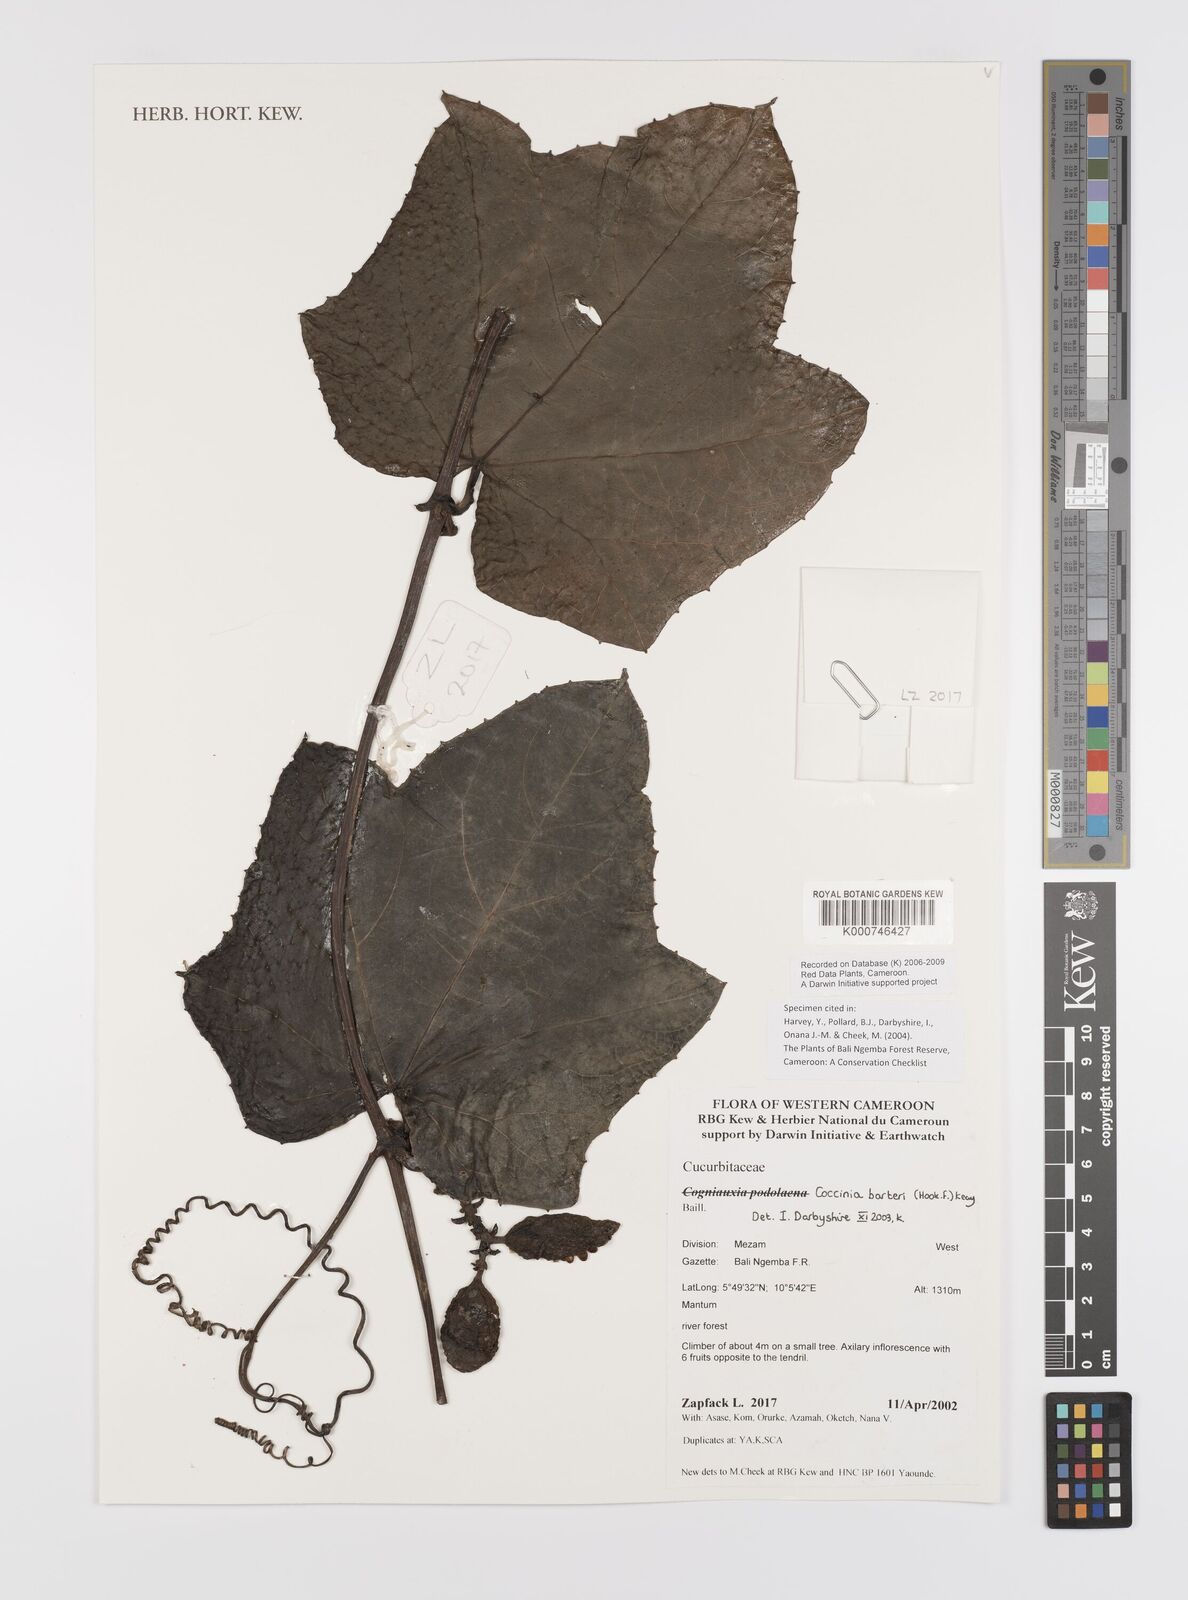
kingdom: Plantae
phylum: Tracheophyta
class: Magnoliopsida
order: Cucurbitales
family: Cucurbitaceae
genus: Coccinia
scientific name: Coccinia barteri
